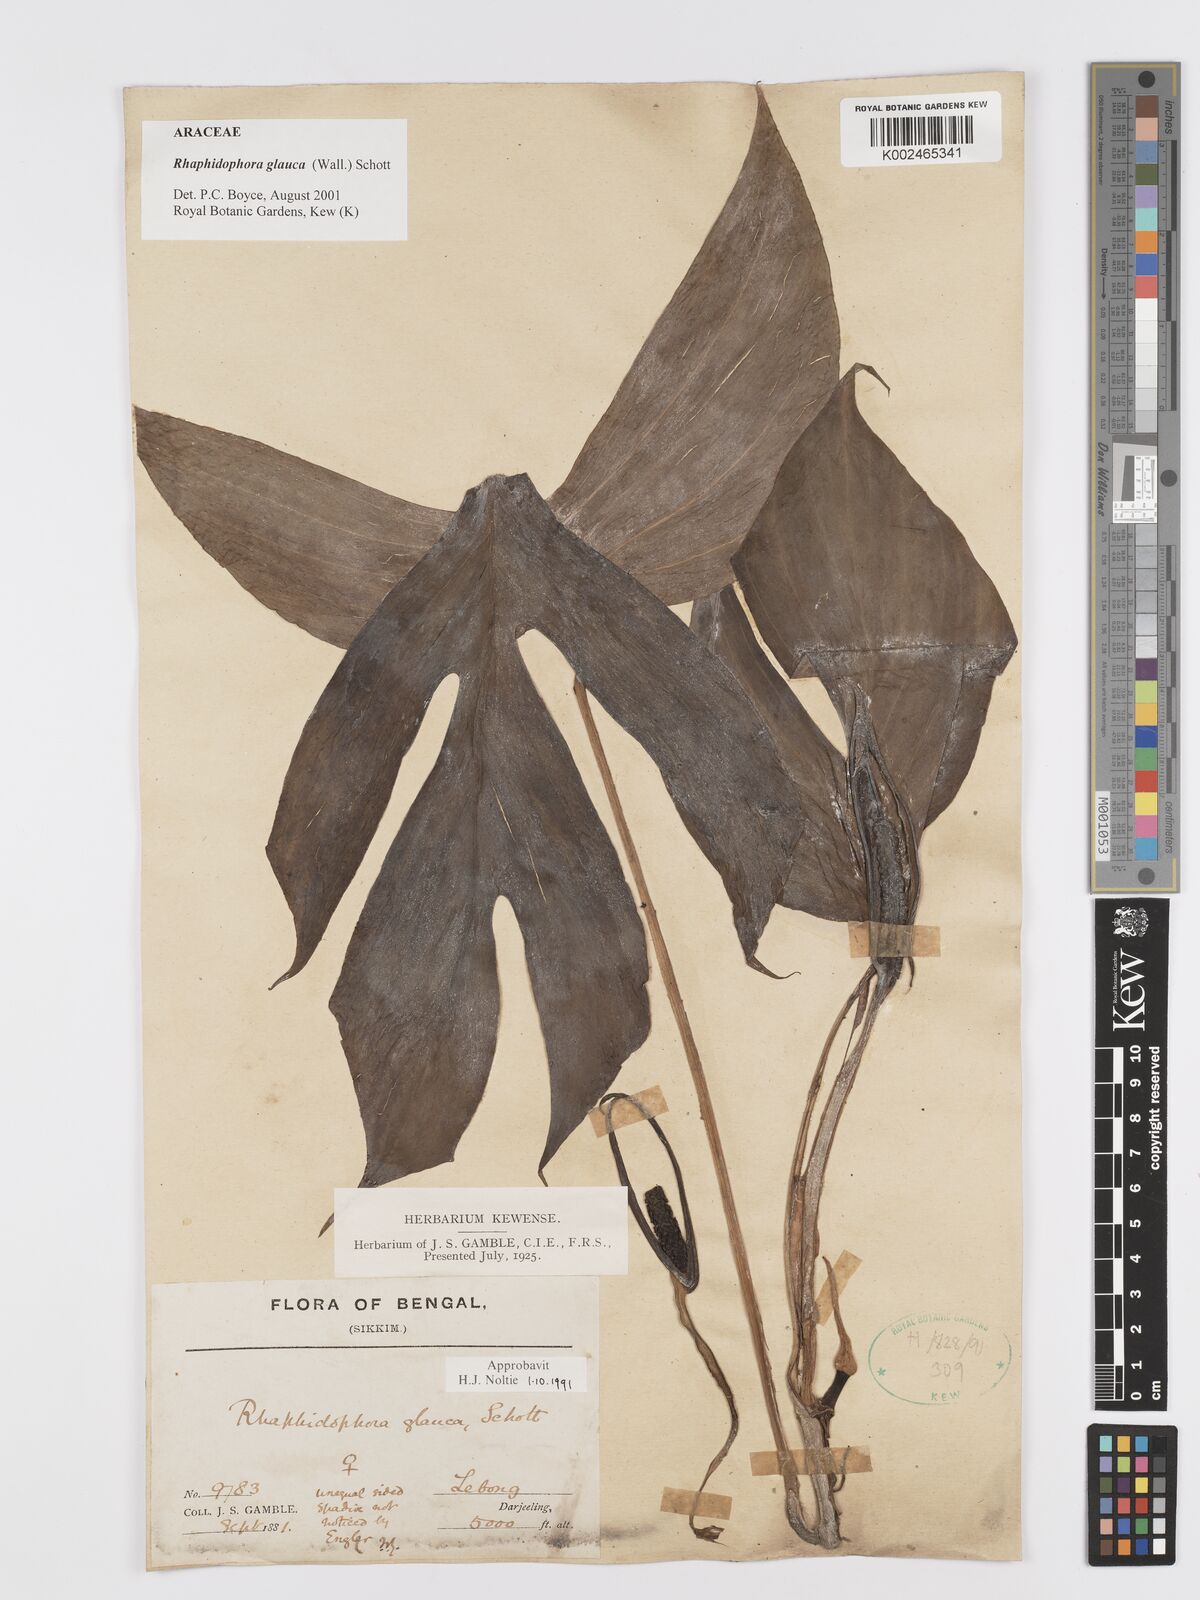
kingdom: Plantae
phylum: Tracheophyta
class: Liliopsida
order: Alismatales
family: Araceae
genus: Rhaphidophora
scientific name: Rhaphidophora glauca
